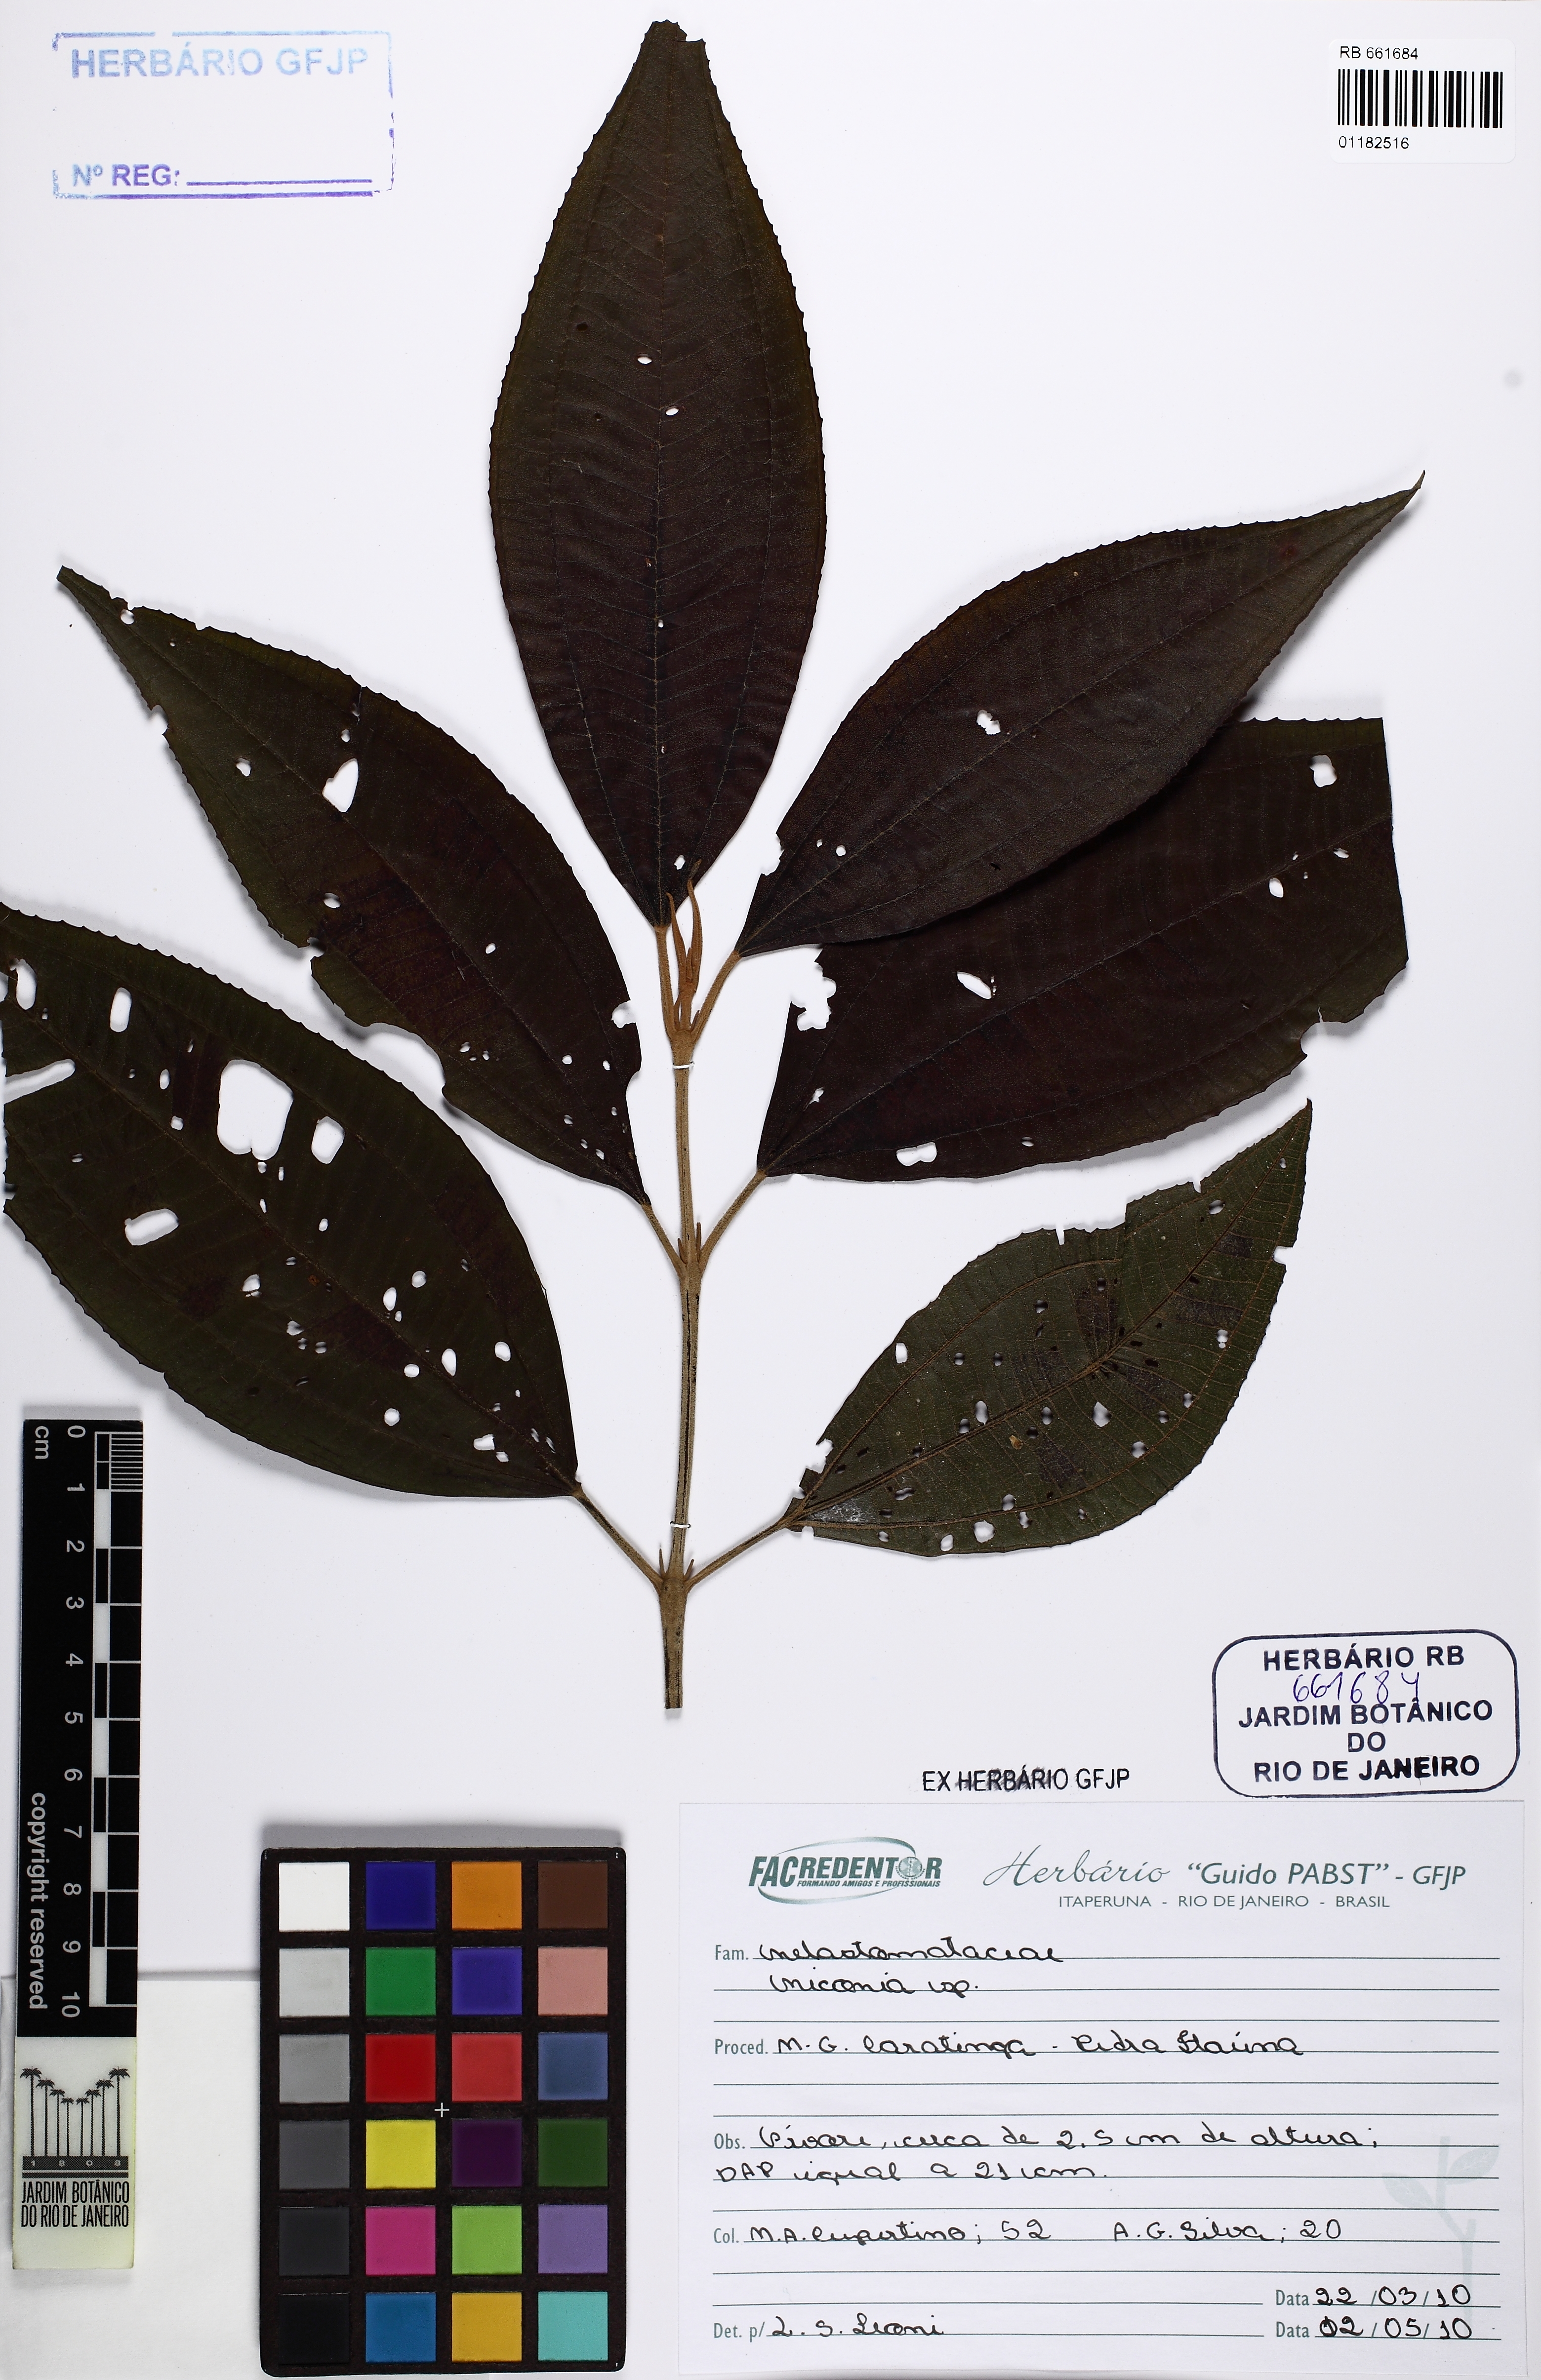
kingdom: Plantae
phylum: Tracheophyta
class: Magnoliopsida
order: Myrtales
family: Melastomataceae
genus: Miconia
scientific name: Miconia
